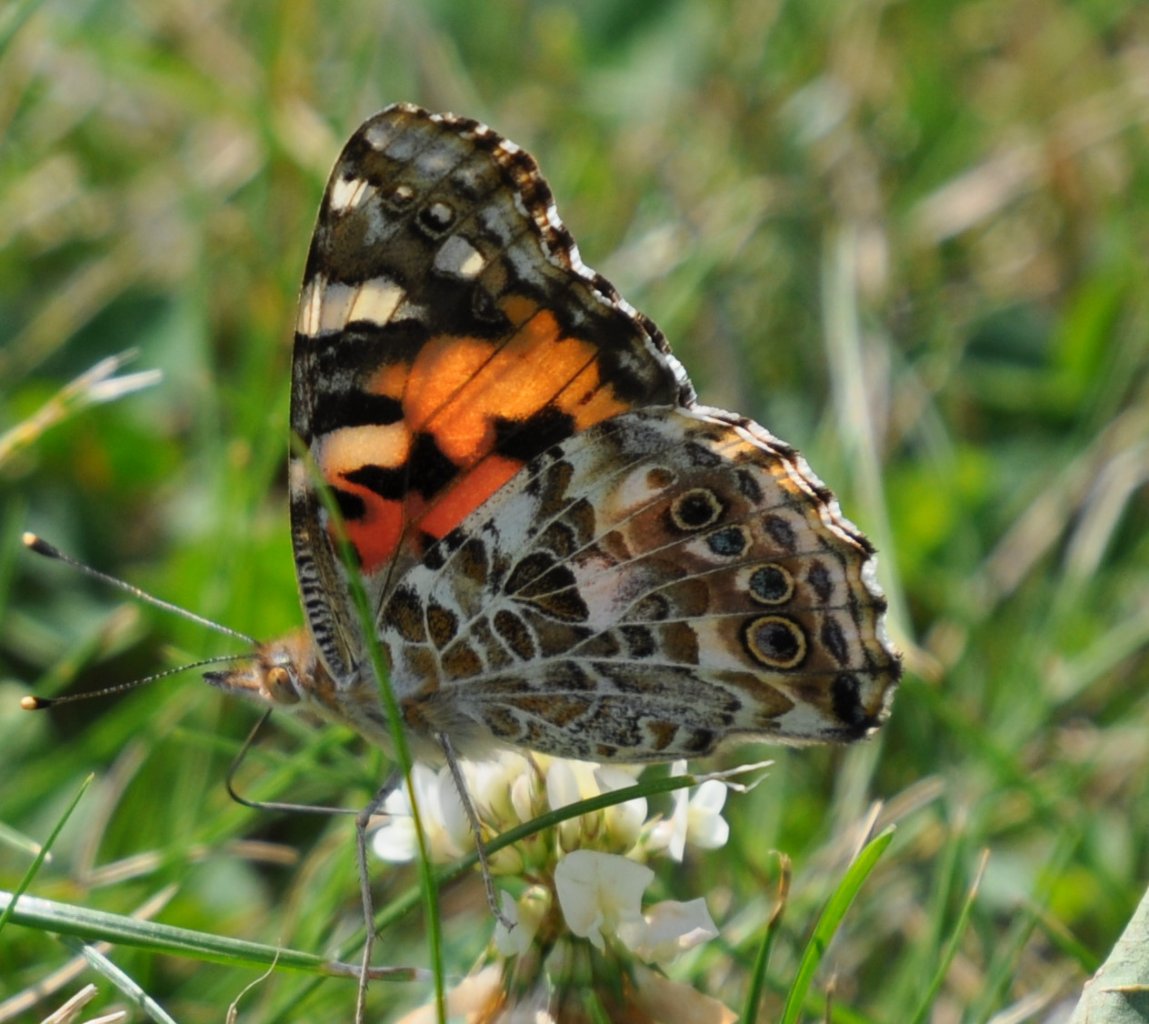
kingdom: Animalia
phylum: Arthropoda
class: Insecta
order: Lepidoptera
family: Nymphalidae
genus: Vanessa
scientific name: Vanessa cardui
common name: Painted Lady
